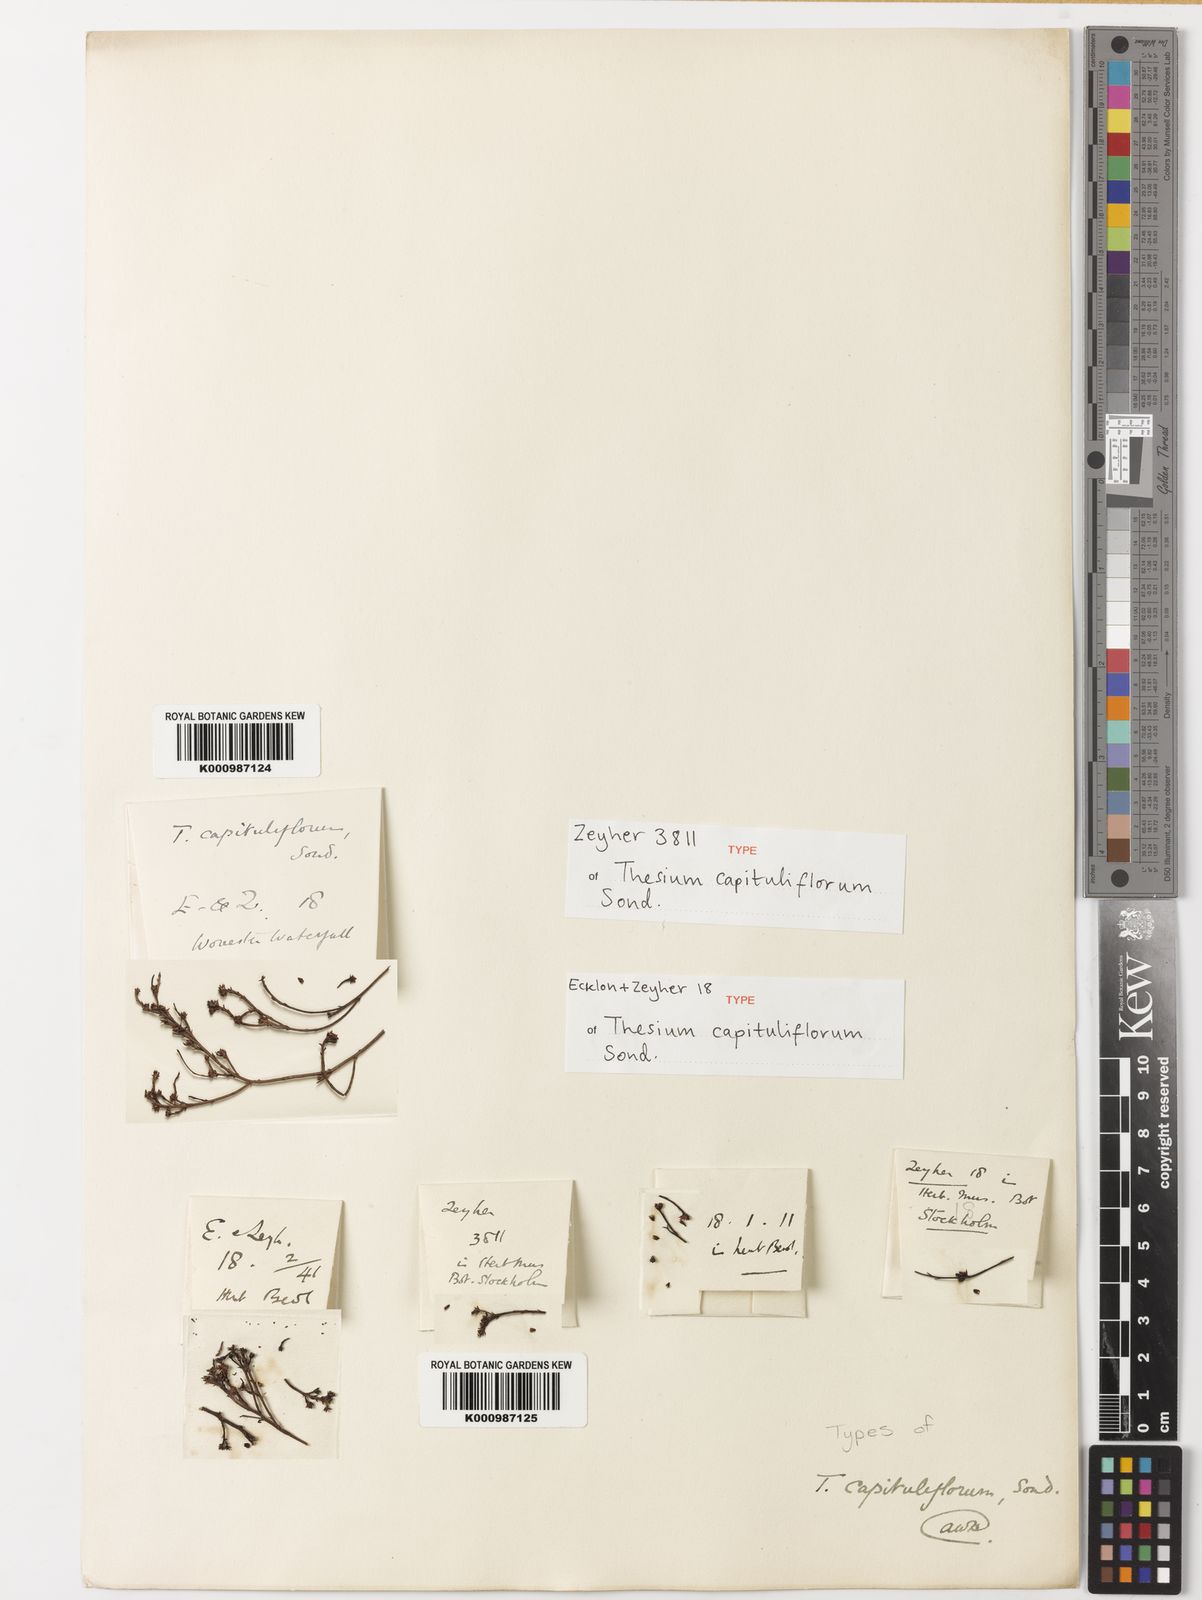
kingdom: Plantae
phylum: Tracheophyta
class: Magnoliopsida
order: Santalales
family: Thesiaceae
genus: Thesium
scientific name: Thesium capituliflorum
